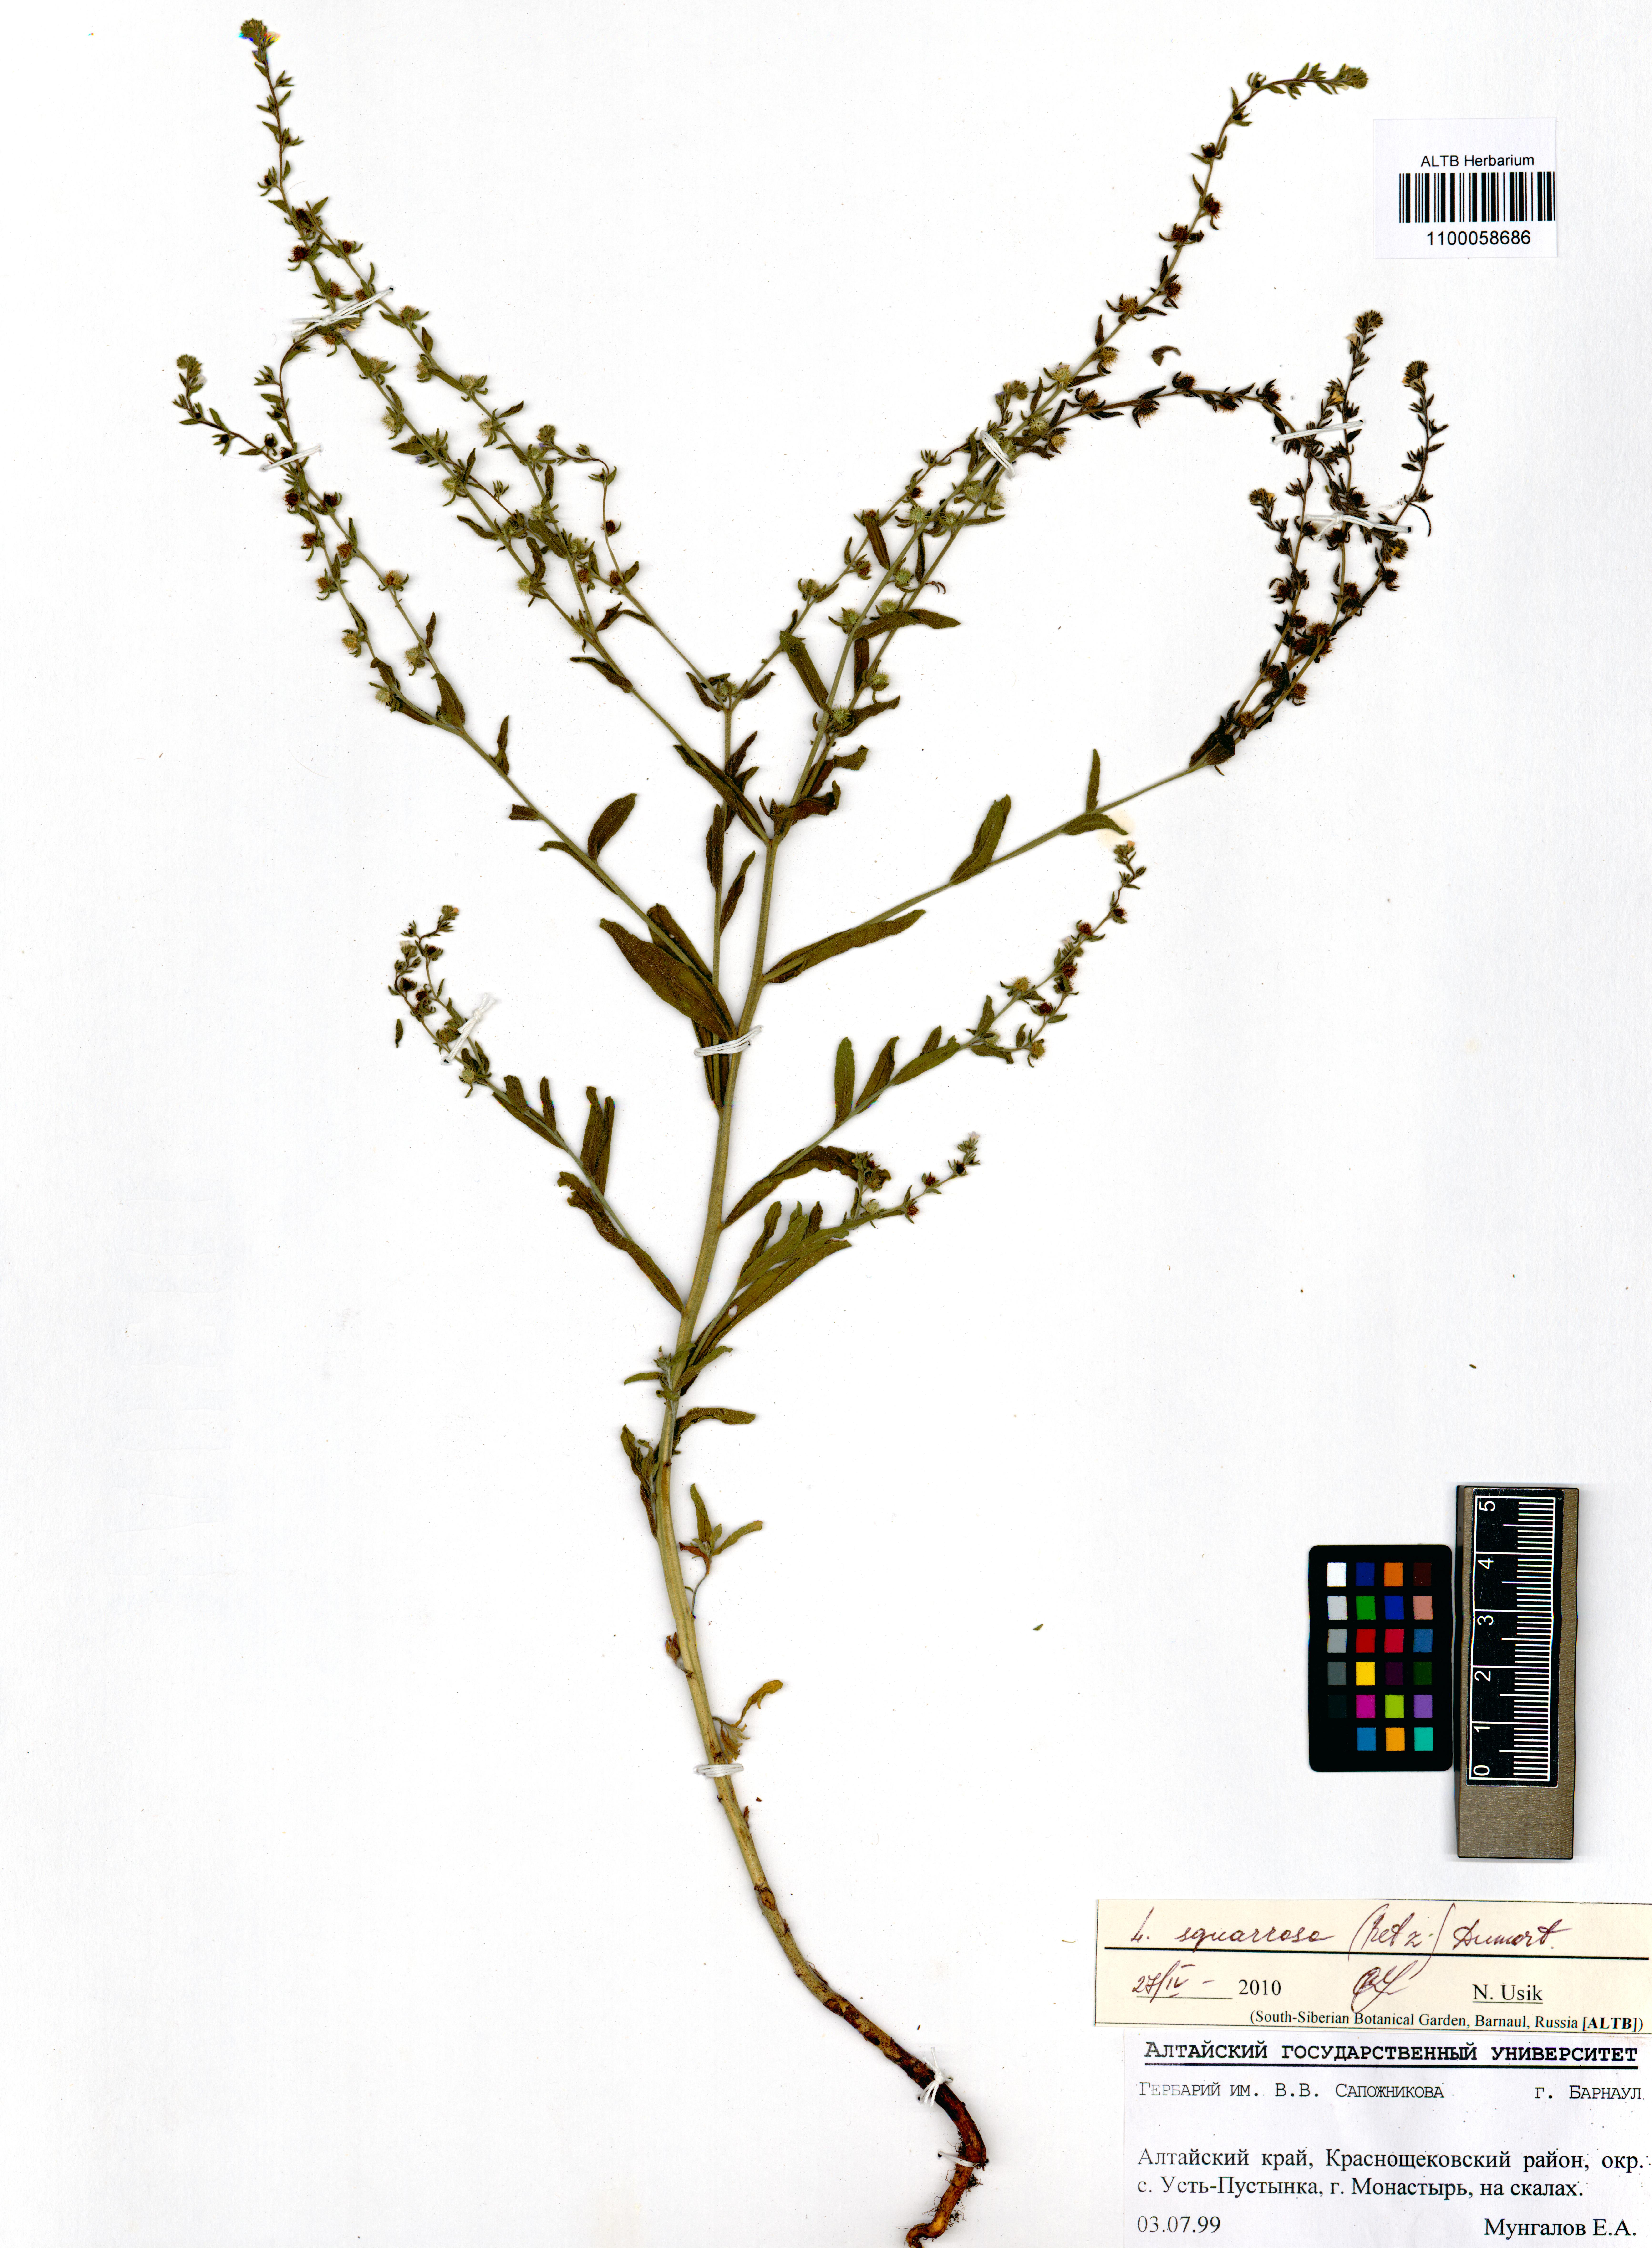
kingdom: Plantae
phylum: Tracheophyta
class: Magnoliopsida
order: Boraginales
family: Boraginaceae
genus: Lappula
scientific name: Lappula squarrosa
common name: European stickseed
